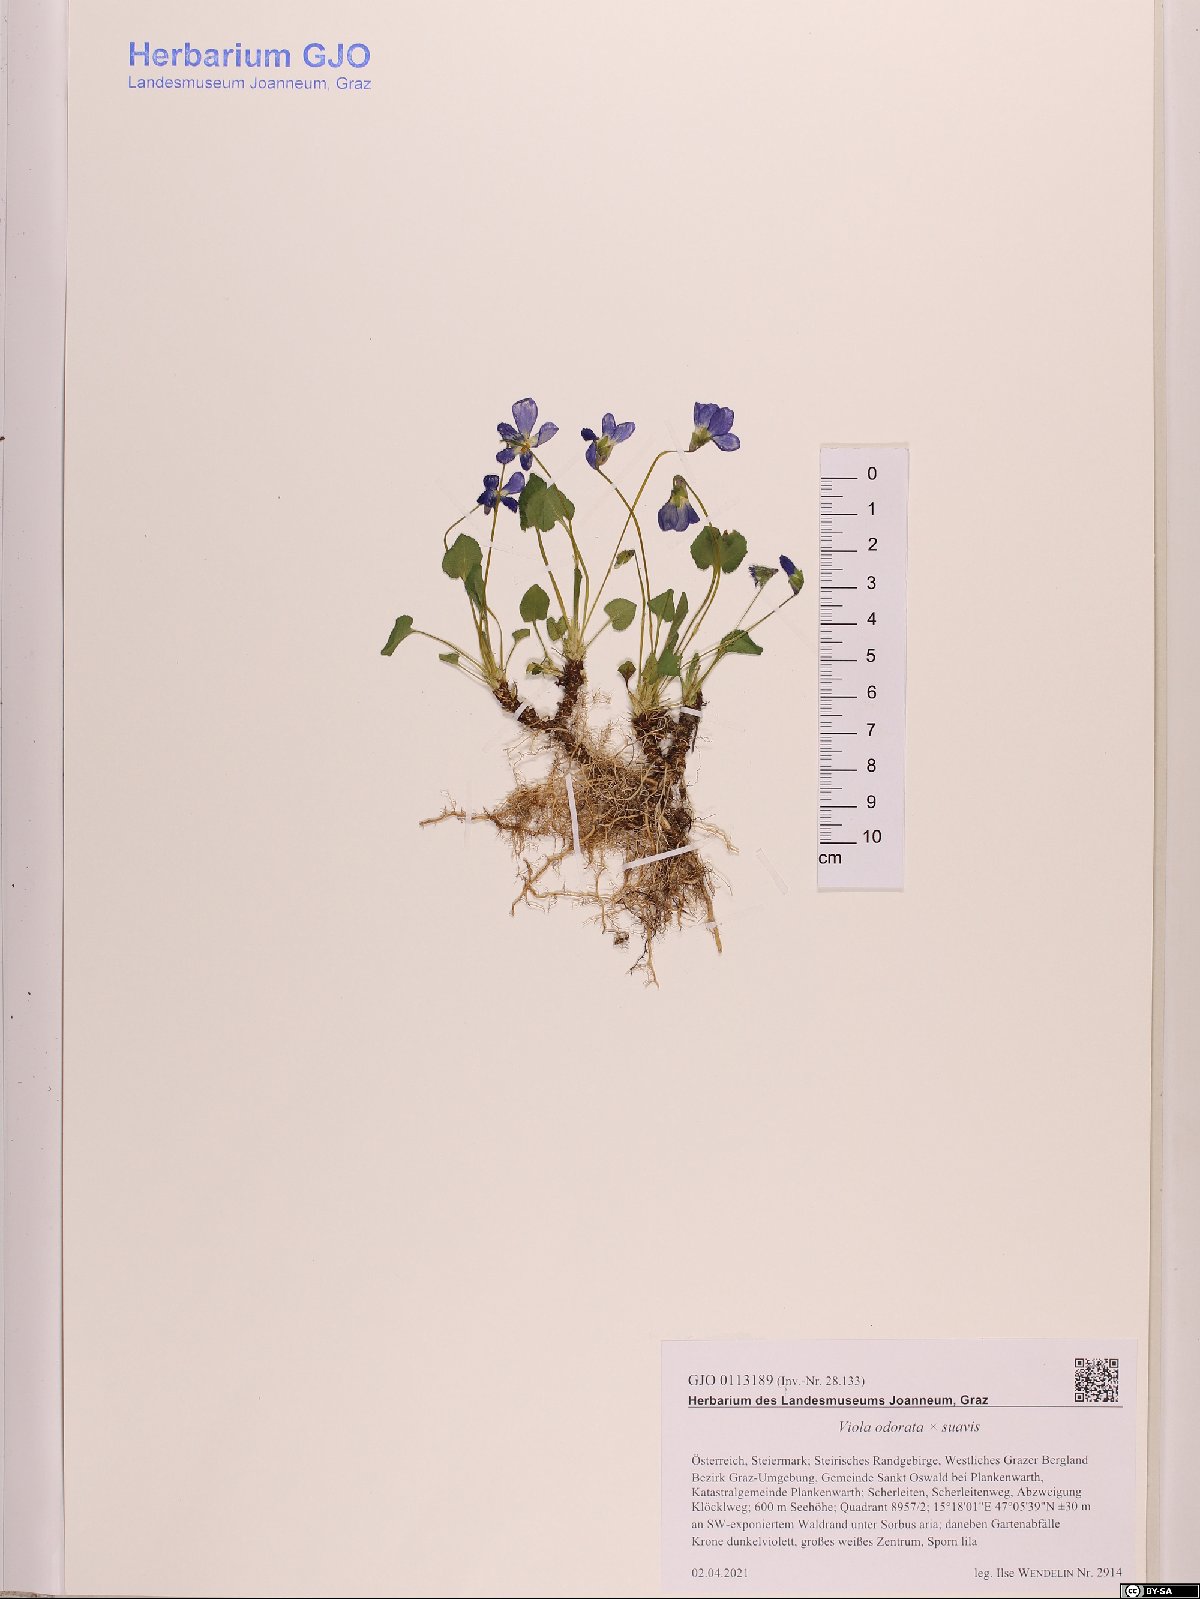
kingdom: Plantae
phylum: Tracheophyta
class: Magnoliopsida
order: Malpighiales
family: Violaceae
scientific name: Violaceae
